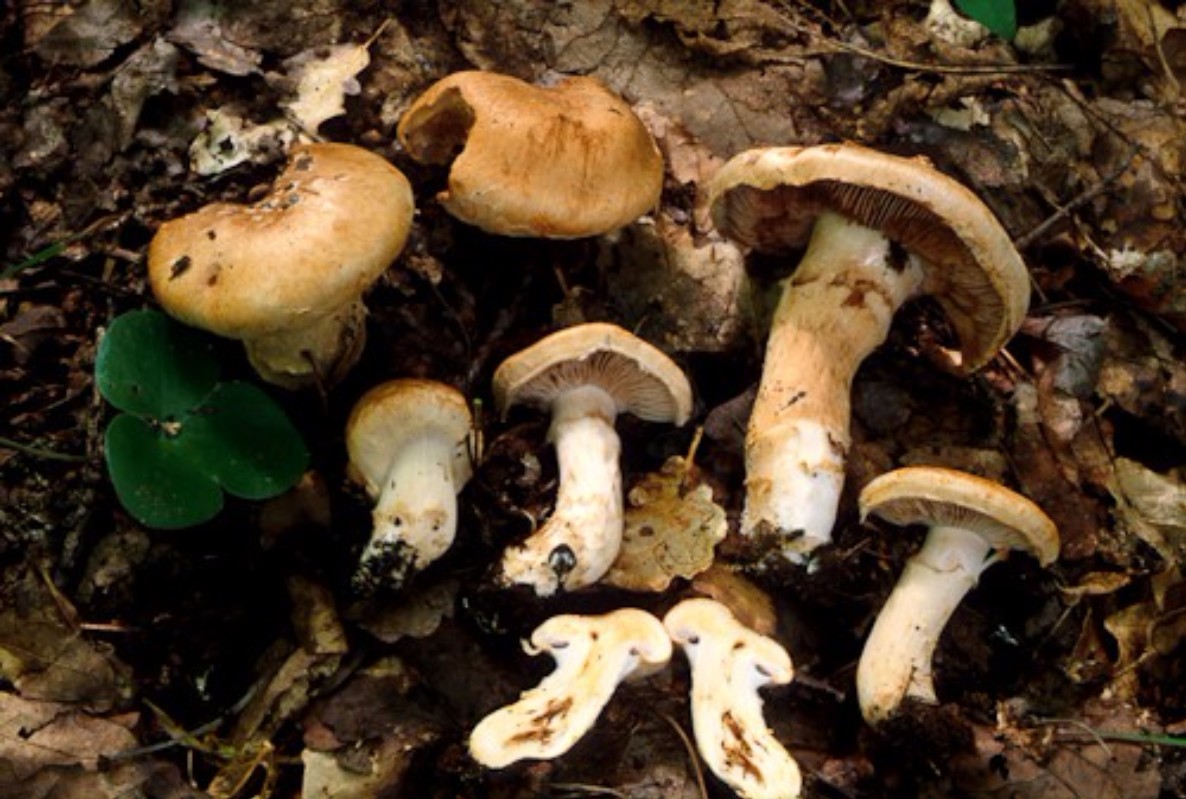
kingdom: Fungi
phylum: Basidiomycota
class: Agaricomycetes
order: Agaricales
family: Cortinariaceae
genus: Phlegmacium
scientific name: Phlegmacium pseudovulpinum
